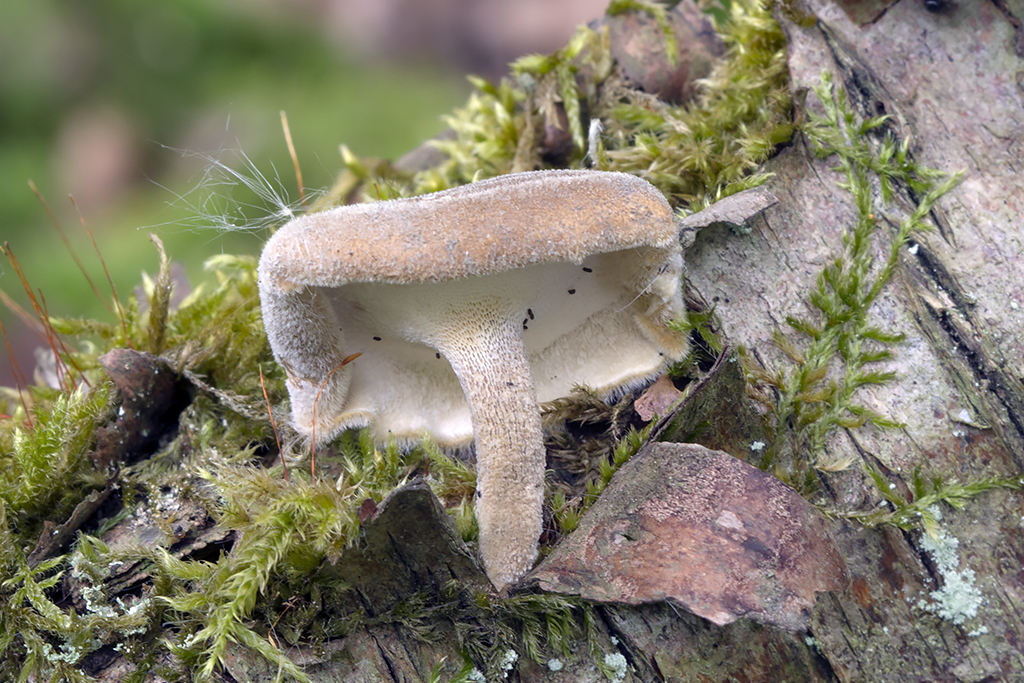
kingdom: Fungi
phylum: Basidiomycota
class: Agaricomycetes
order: Polyporales
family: Polyporaceae
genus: Lentinus
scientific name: Lentinus substrictus
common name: forårs-stilkporesvamp
